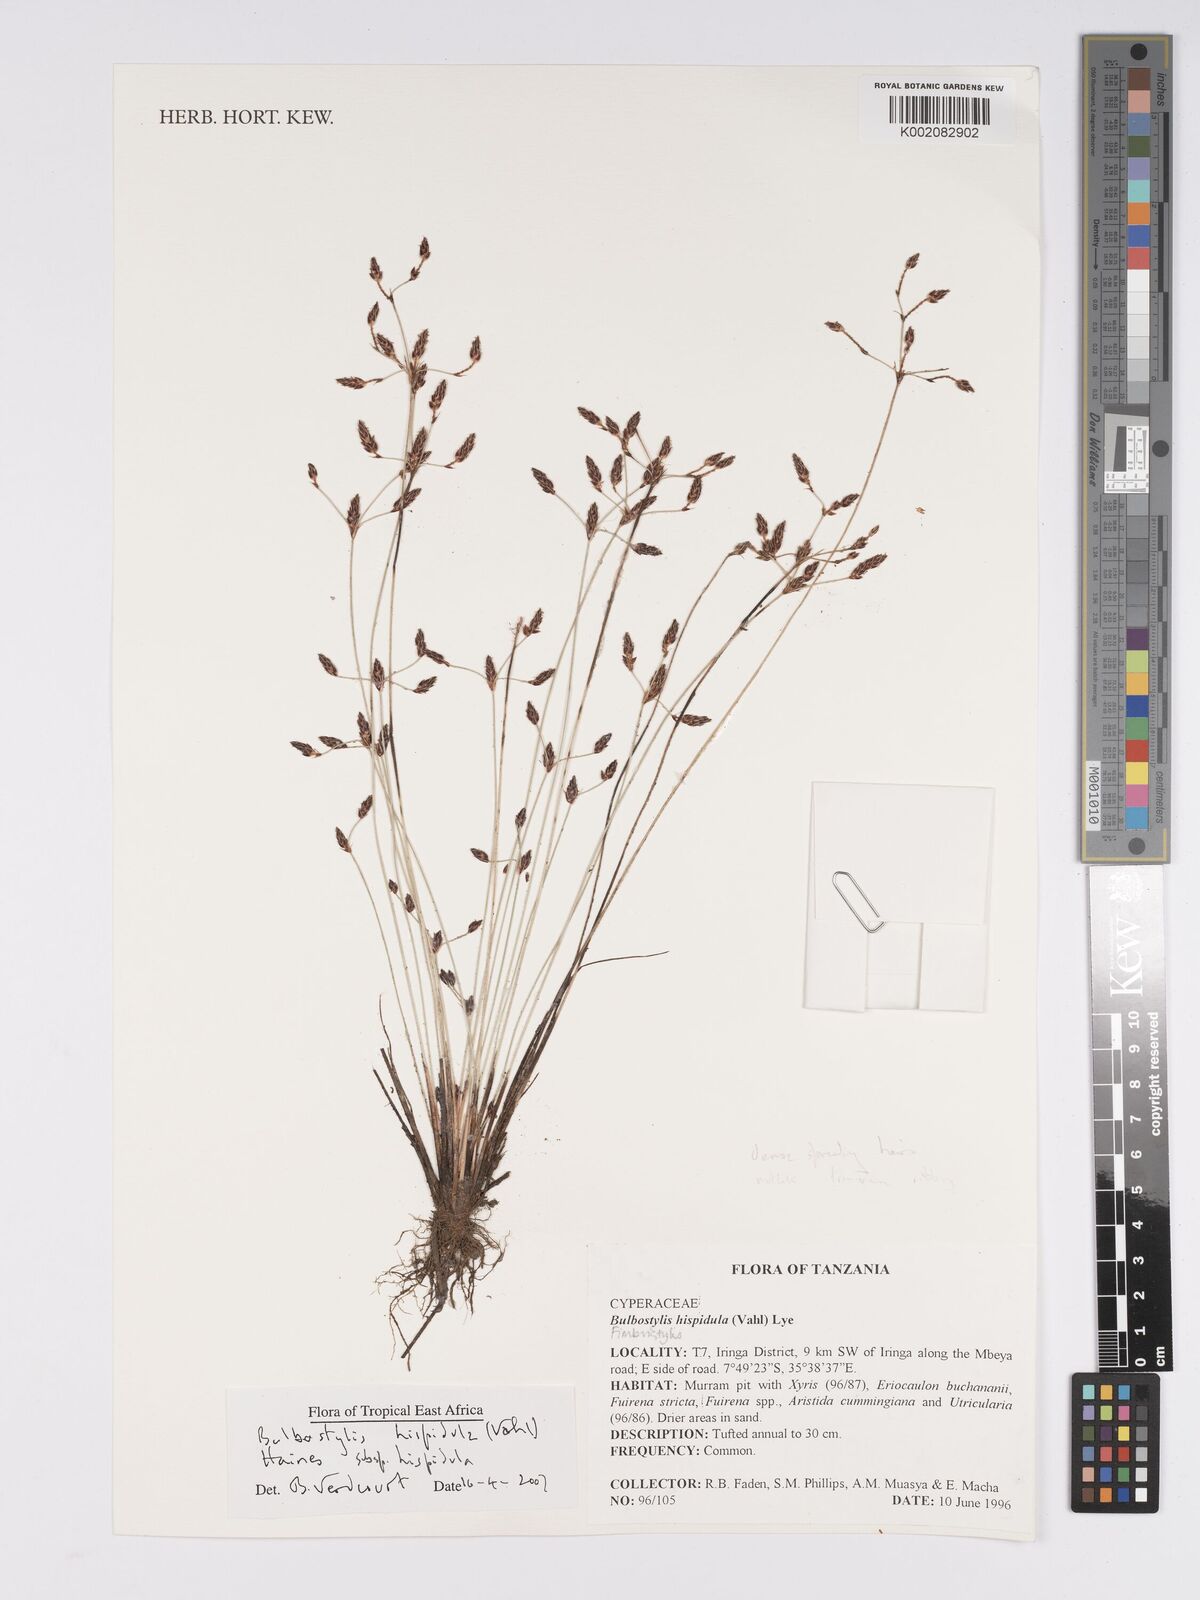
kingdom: Plantae
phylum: Tracheophyta
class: Liliopsida
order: Poales
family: Cyperaceae
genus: Bulbostylis
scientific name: Bulbostylis hispidula
